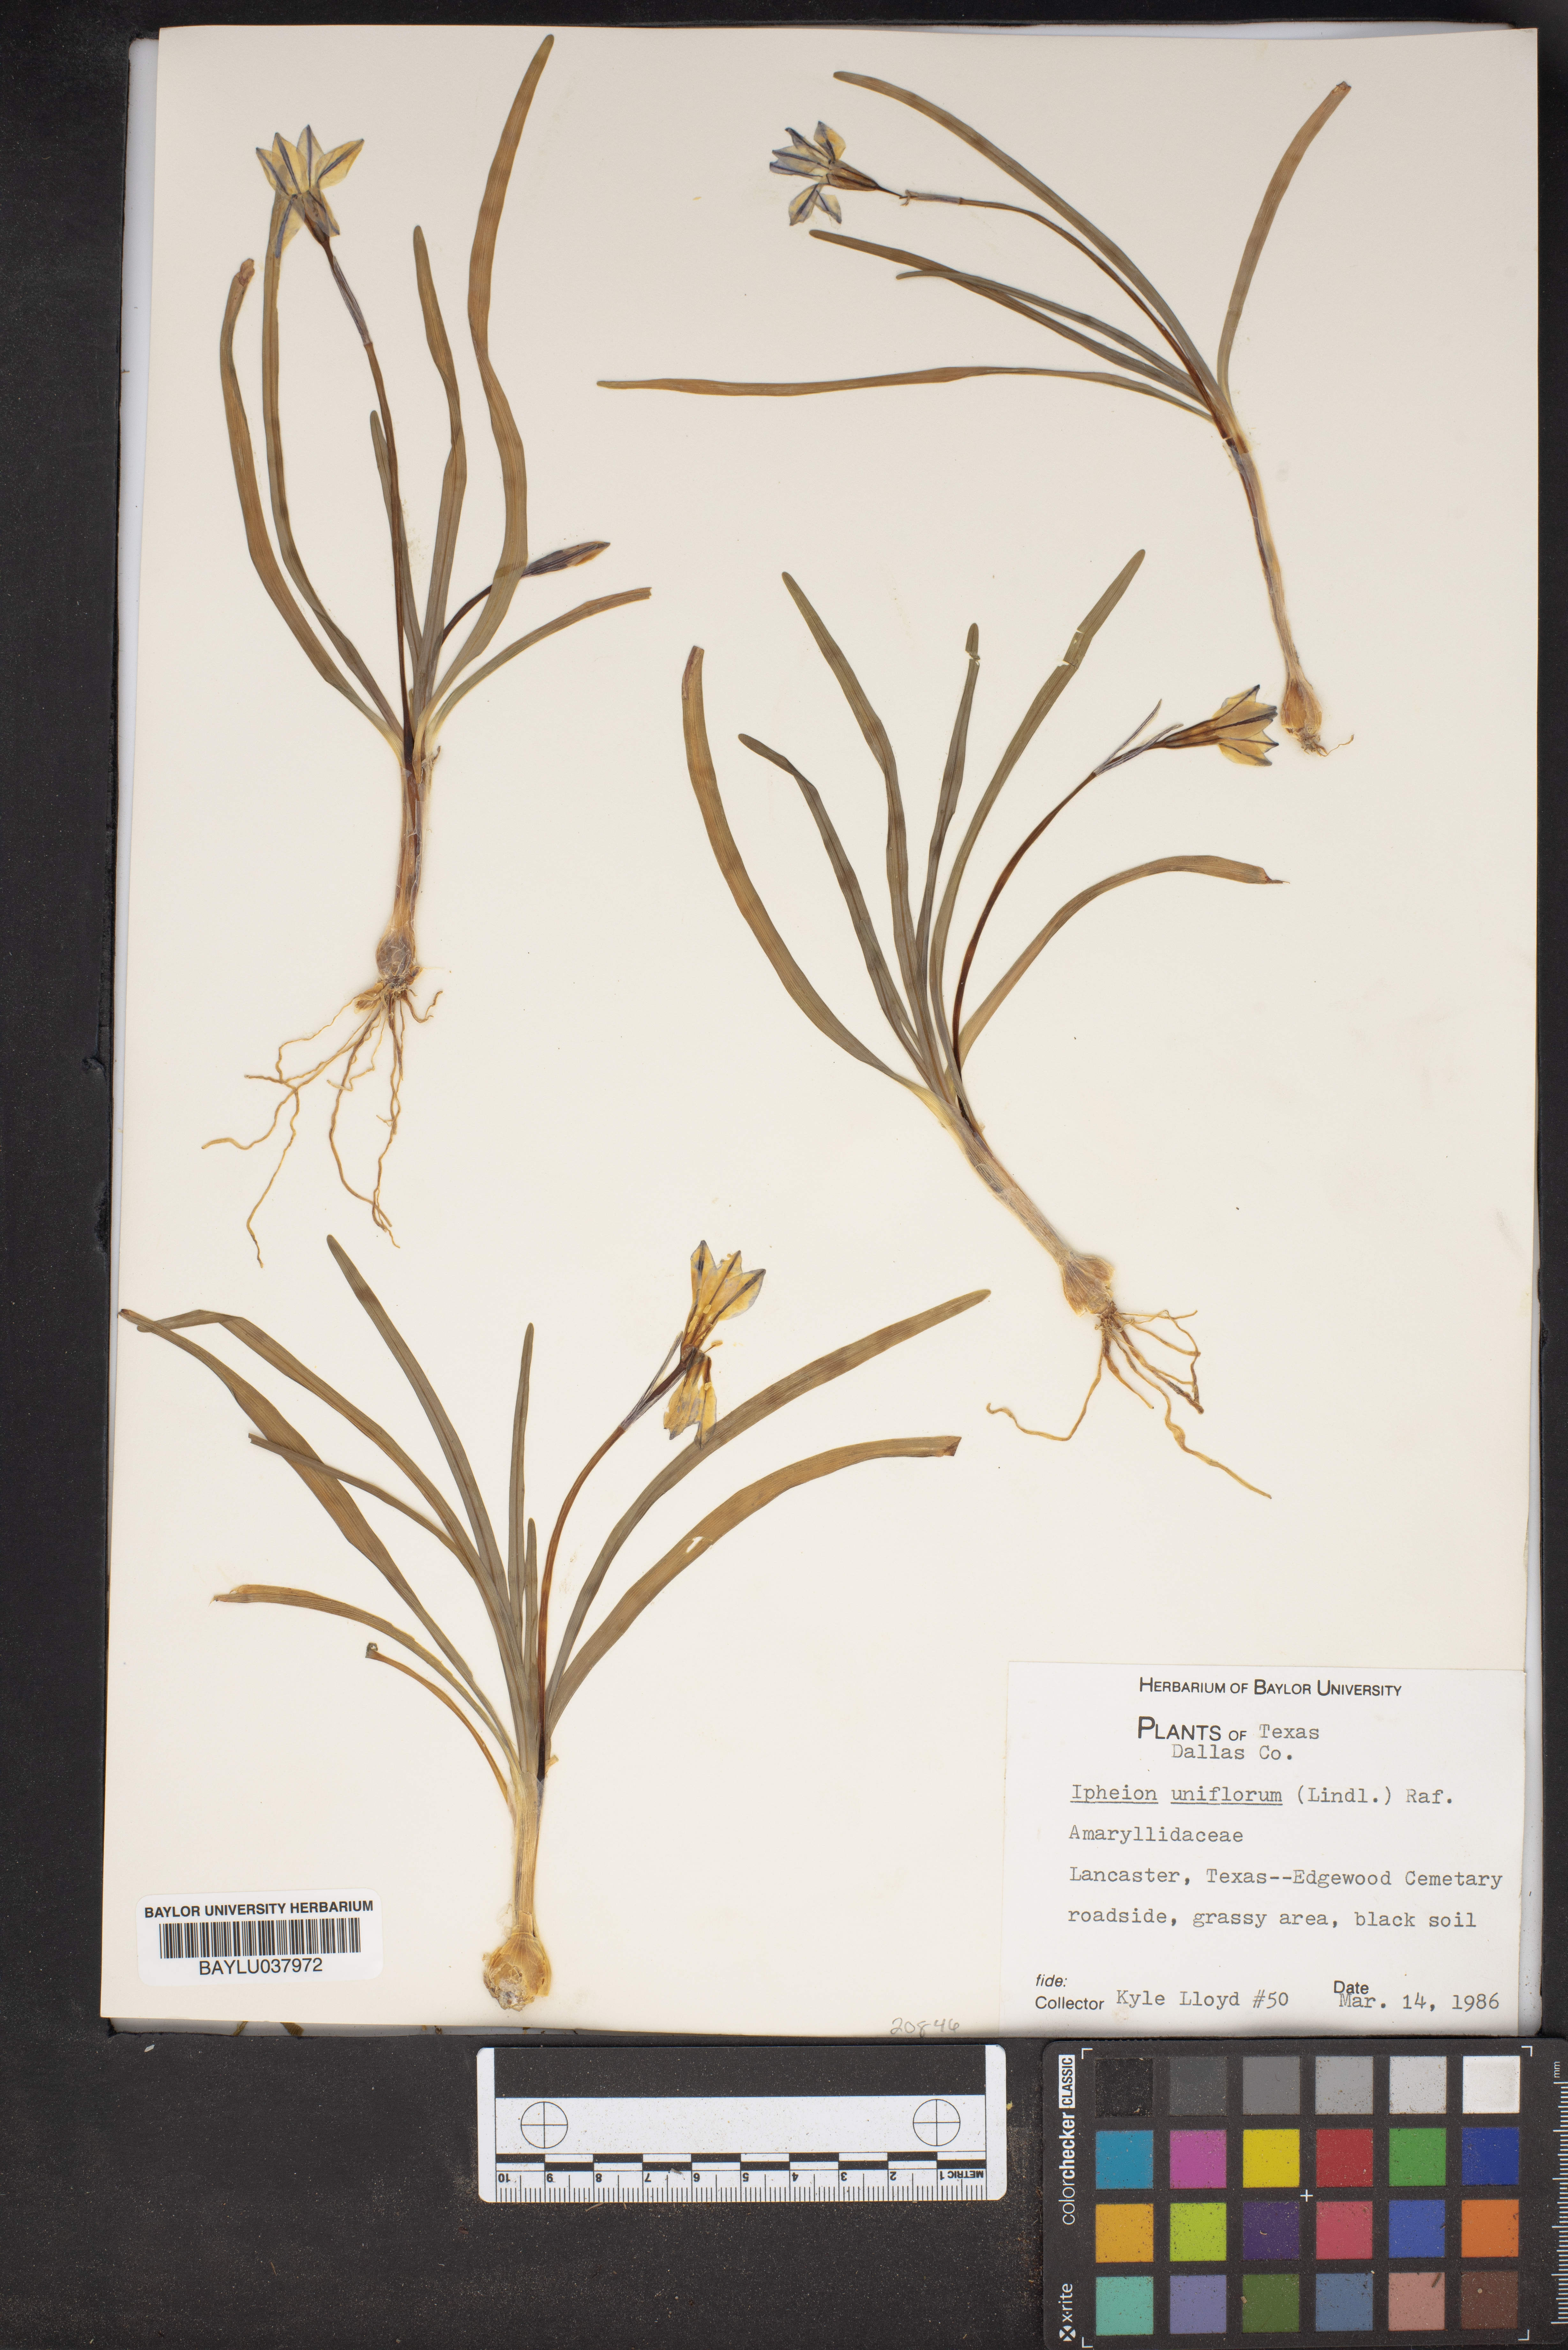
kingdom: Plantae
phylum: Tracheophyta
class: Liliopsida
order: Asparagales
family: Amaryllidaceae
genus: Ipheion
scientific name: Ipheion uniflorum
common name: Spring starflower
